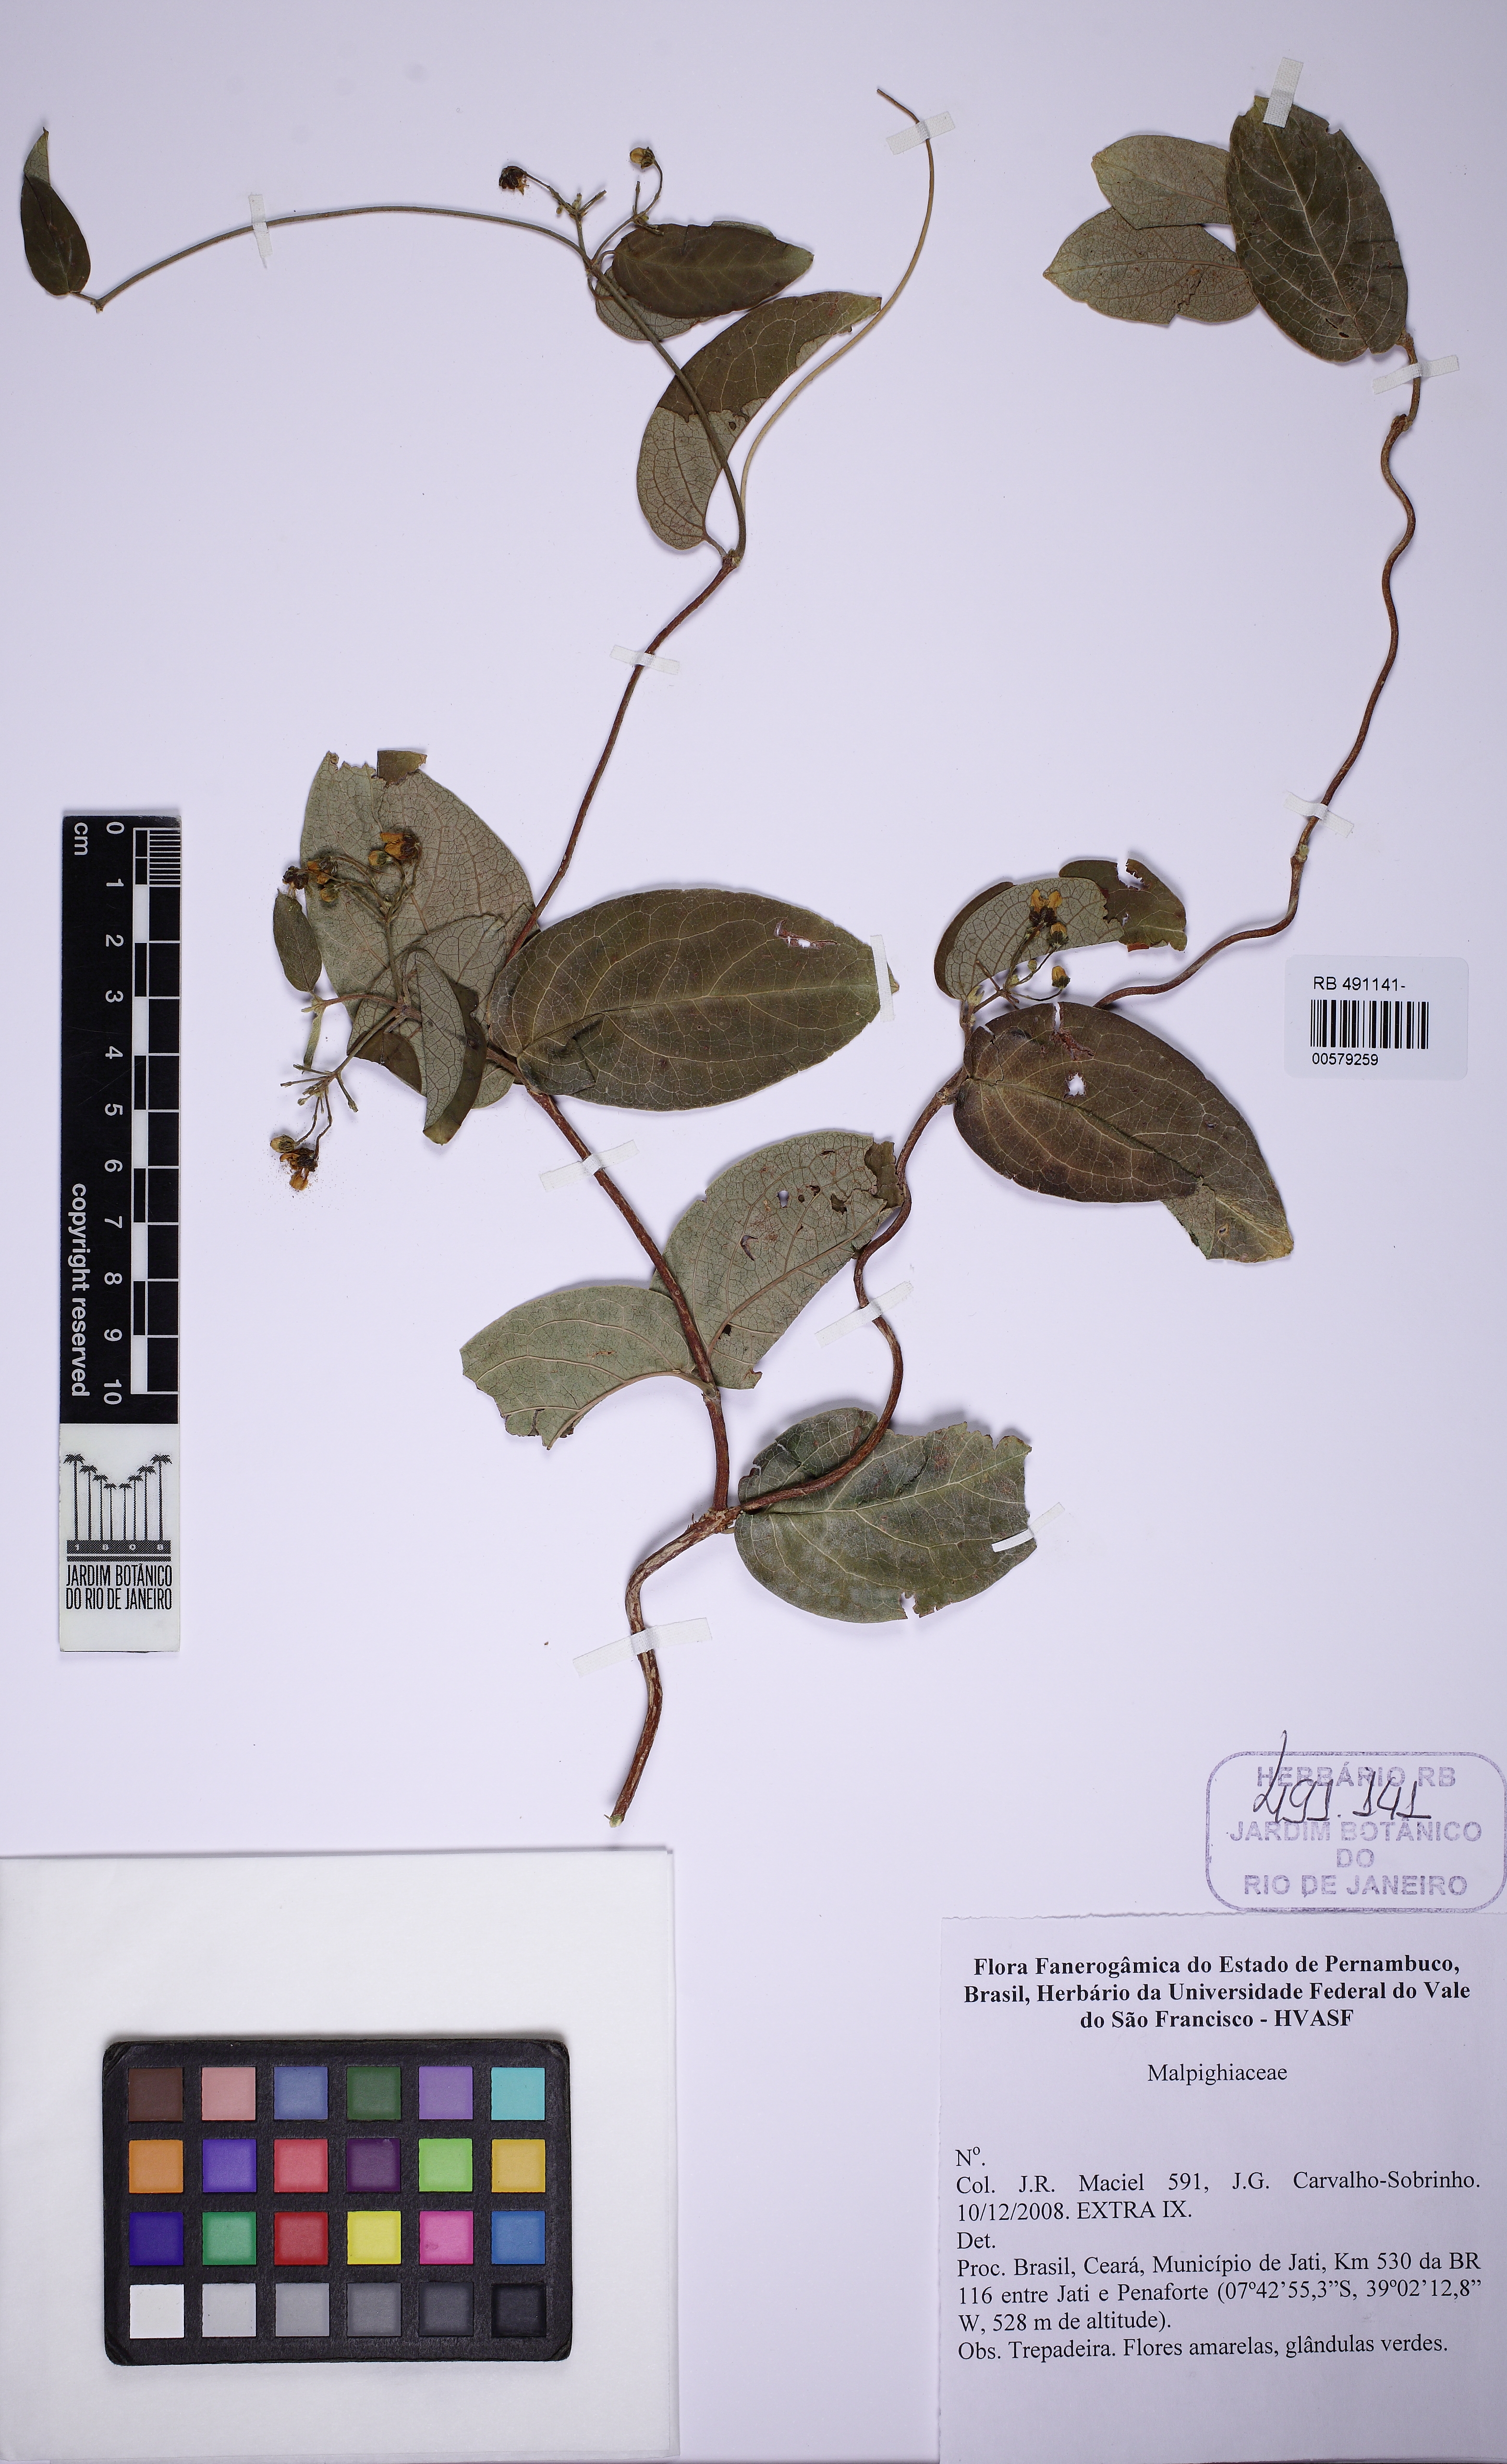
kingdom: Plantae
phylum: Tracheophyta
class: Magnoliopsida
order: Malpighiales
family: Malpighiaceae
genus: Mascagnia
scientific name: Mascagnia sepium
